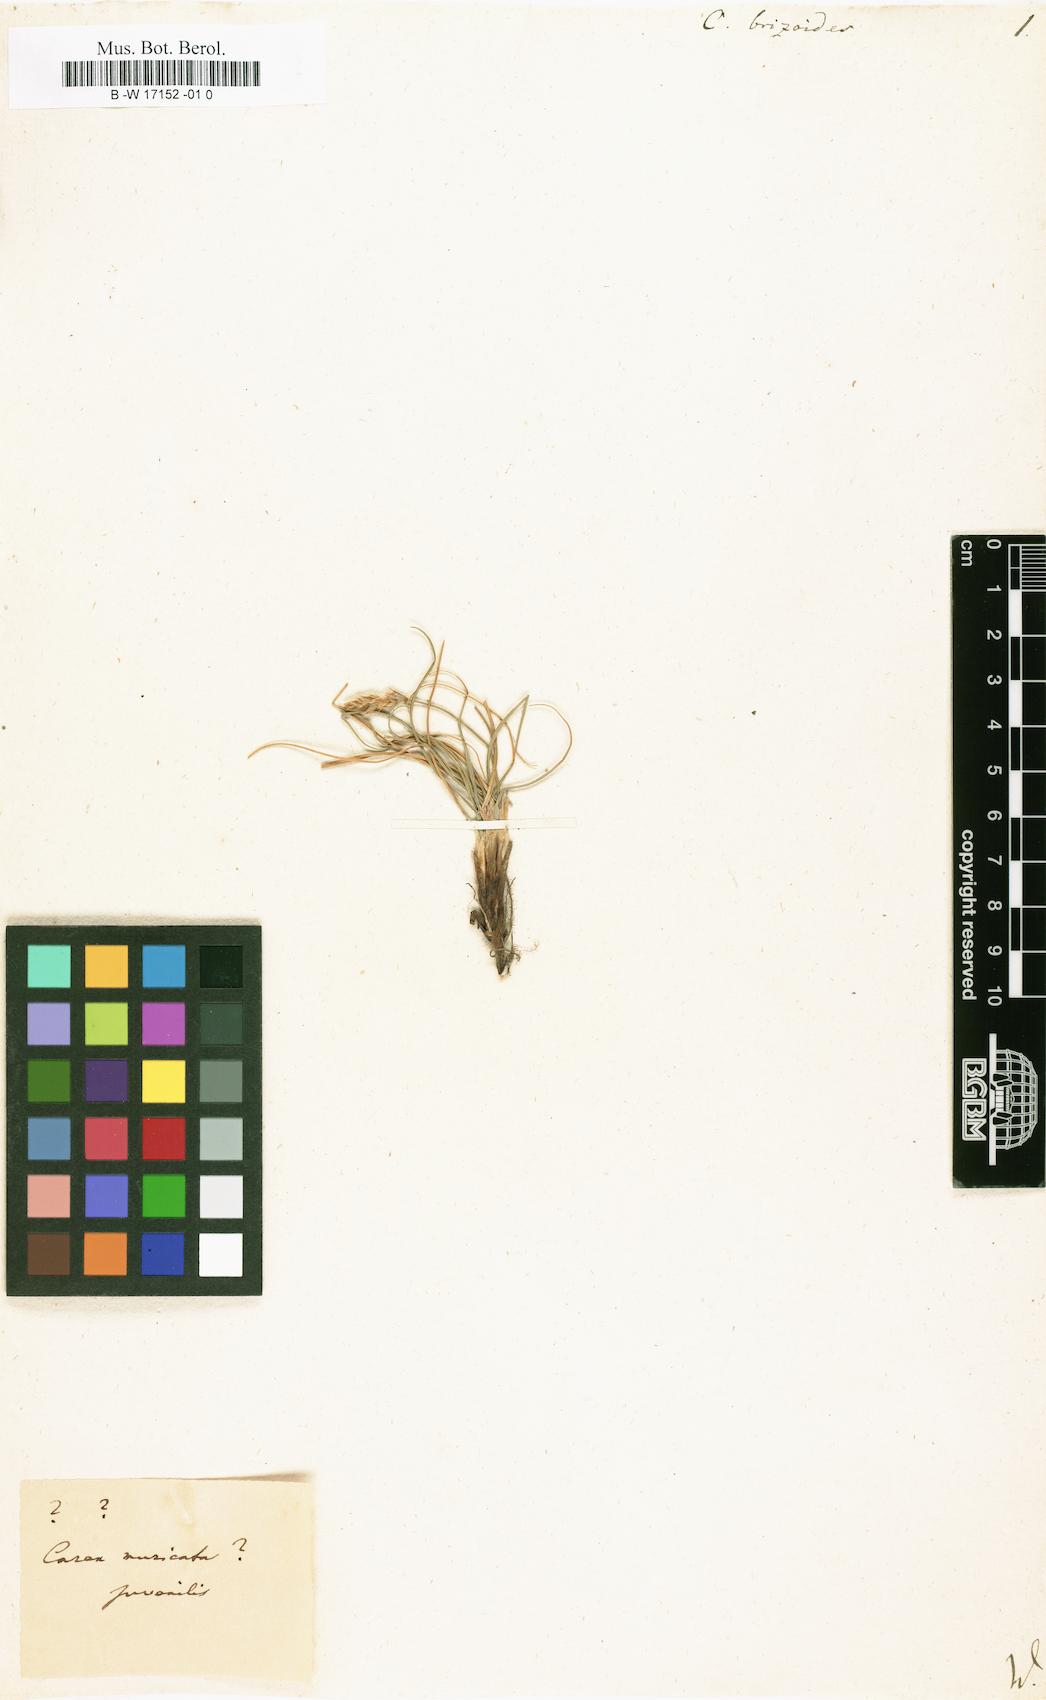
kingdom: Plantae
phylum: Tracheophyta
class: Liliopsida
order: Poales
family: Cyperaceae
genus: Carex
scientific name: Carex brizoides
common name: Quaking-grass sedge
